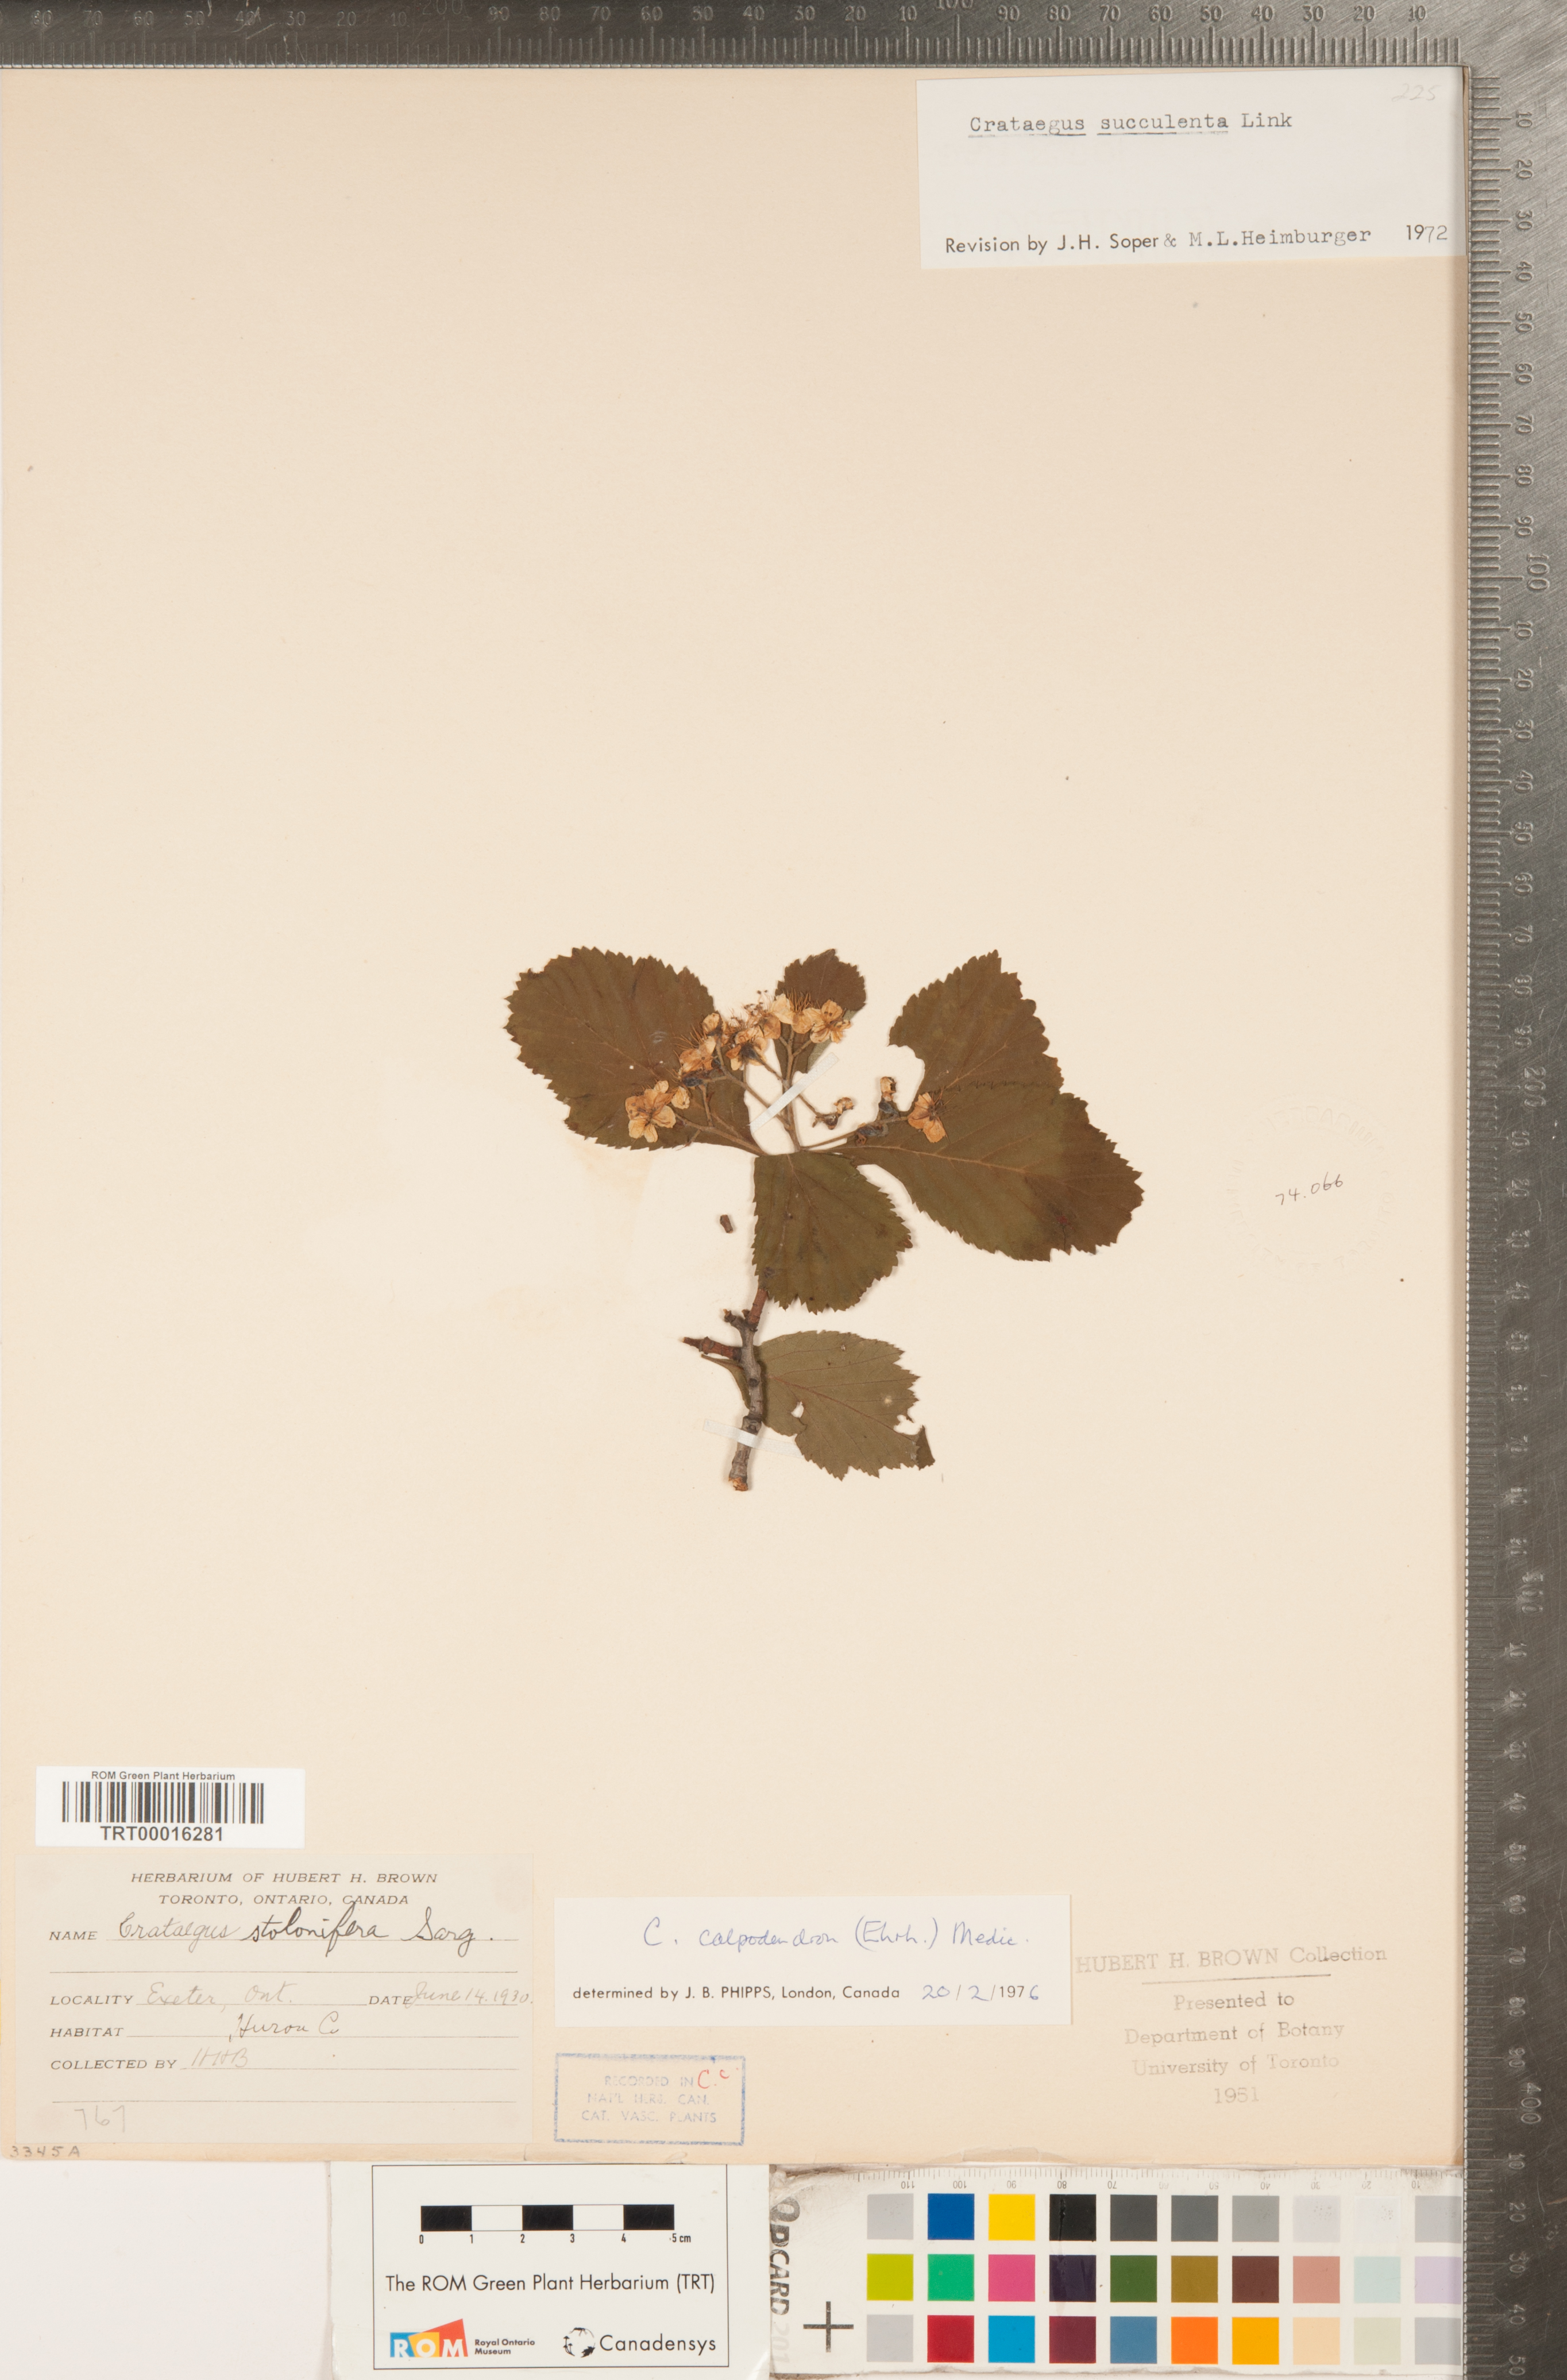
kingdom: Plantae
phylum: Tracheophyta
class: Magnoliopsida
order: Rosales
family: Rosaceae
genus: Crataegus
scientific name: Crataegus calpodendron
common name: Pear hawthorn
